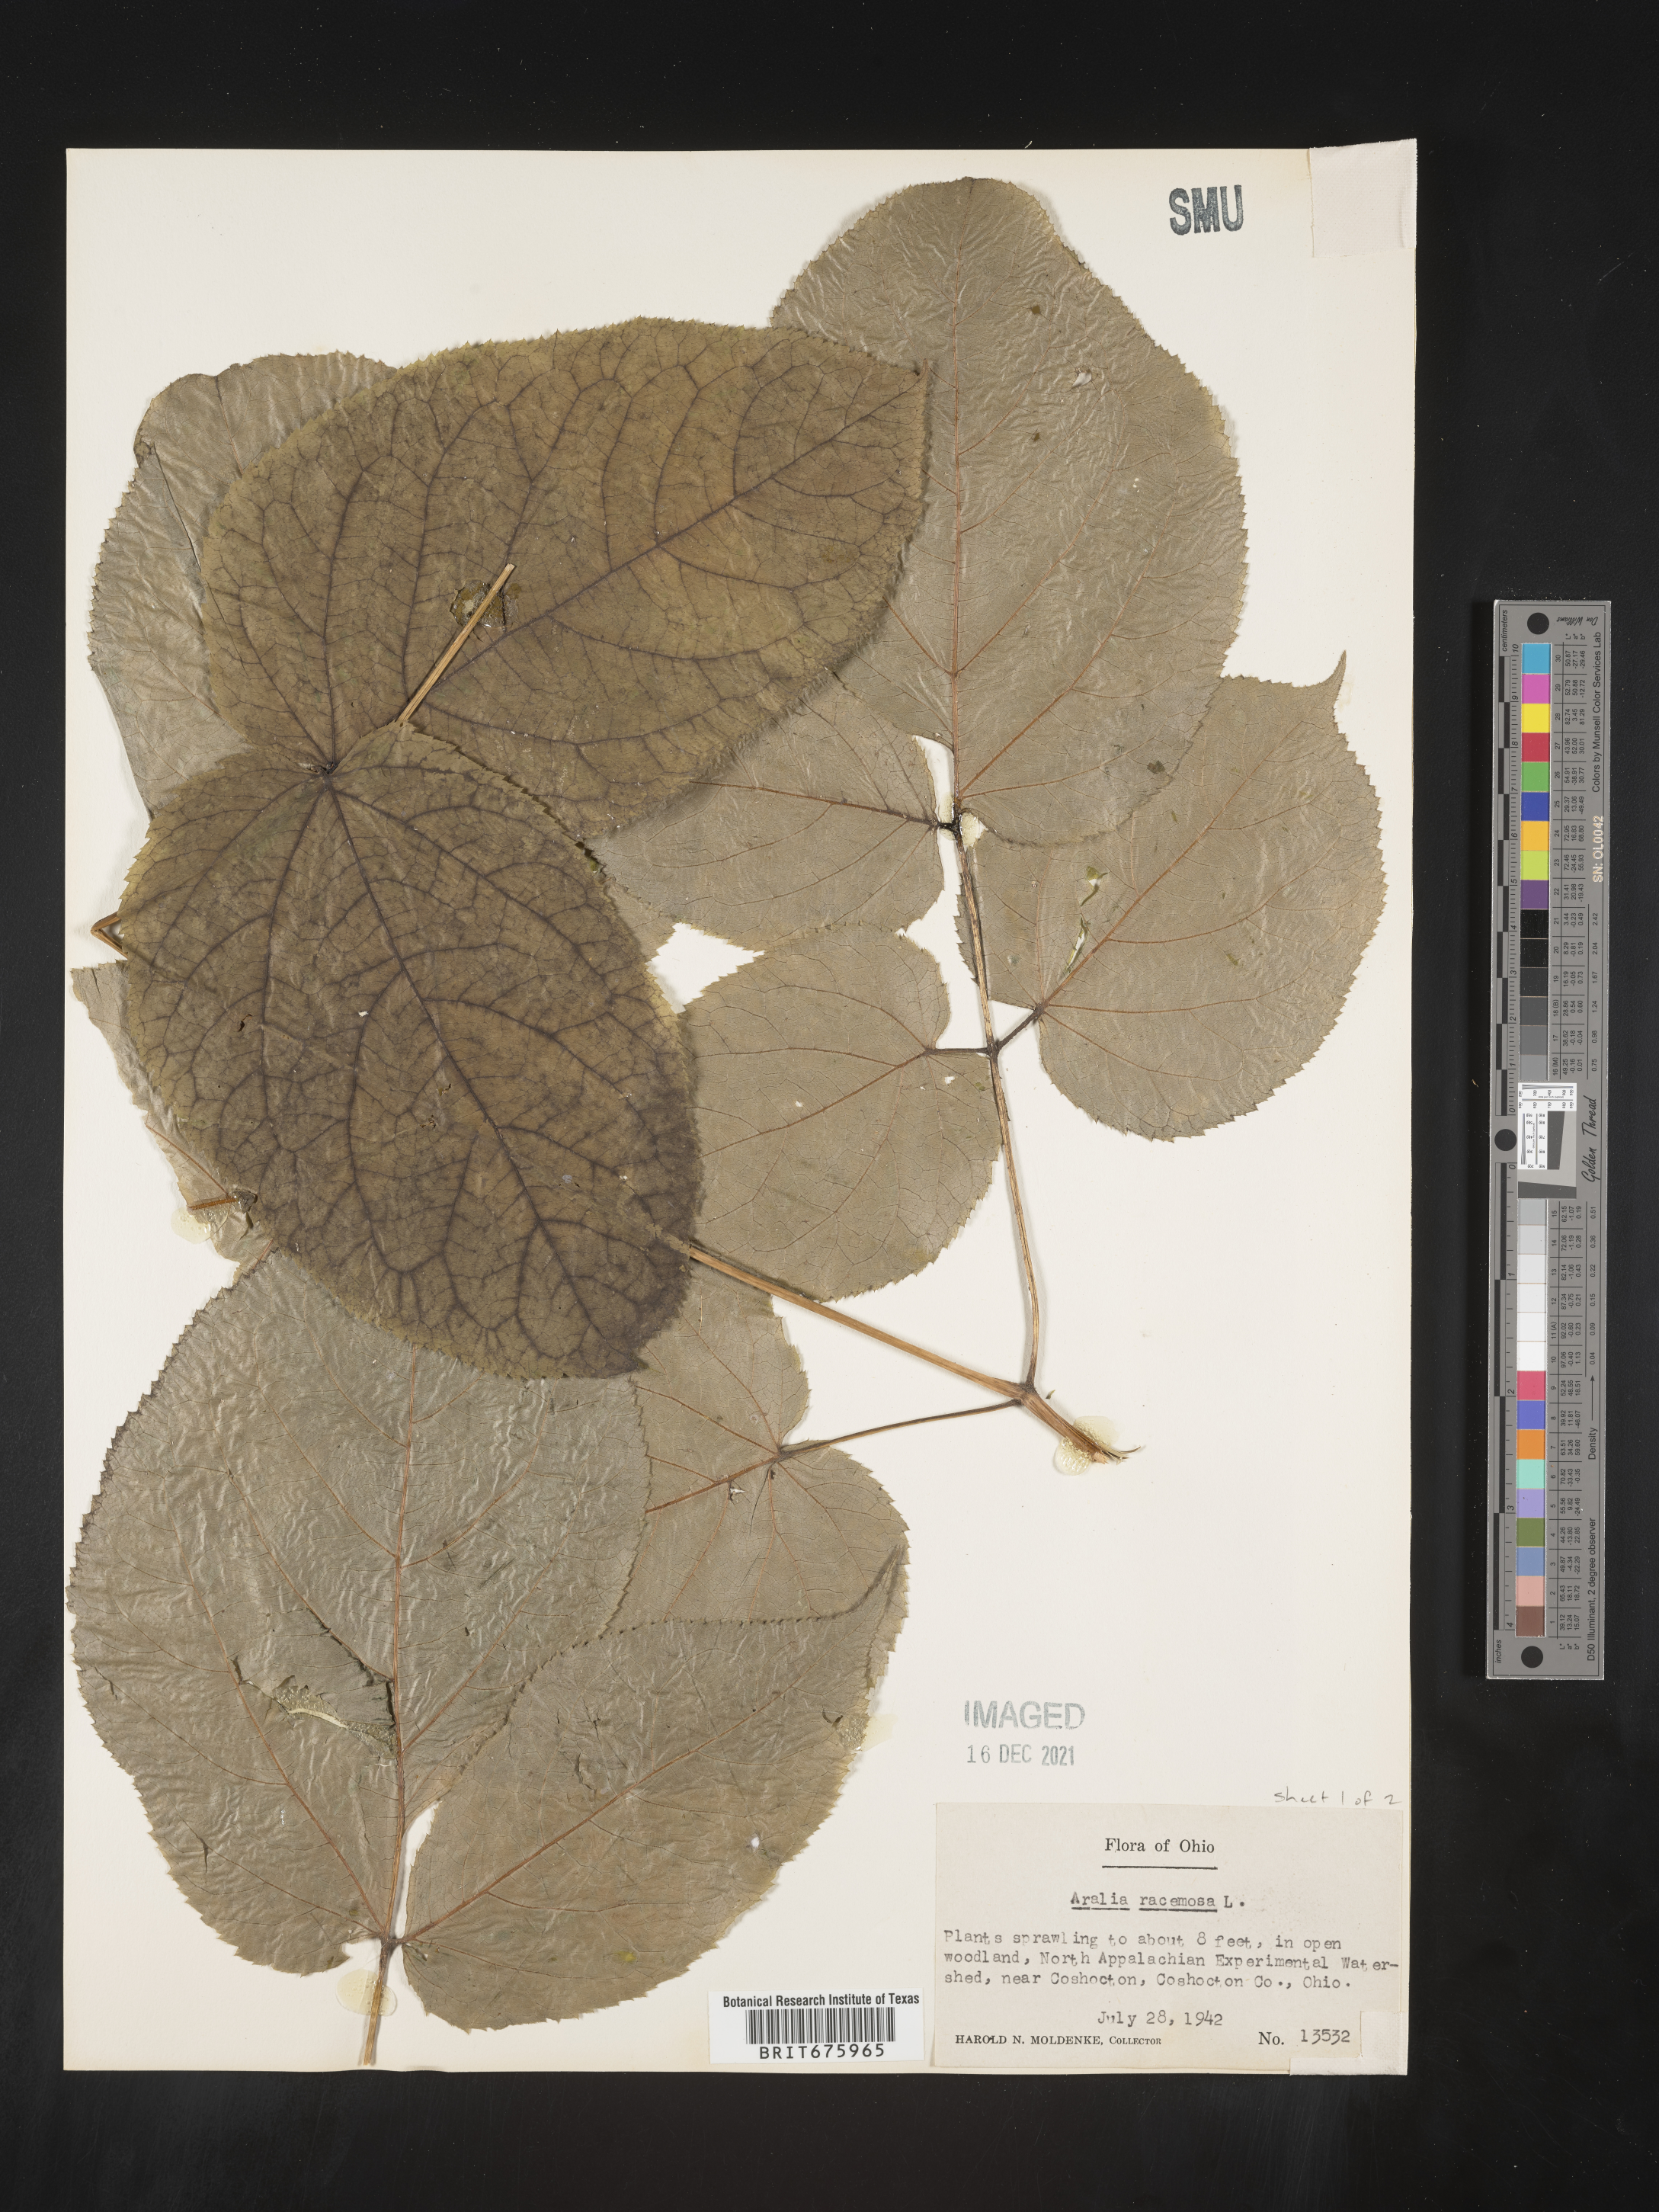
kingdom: Plantae
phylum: Tracheophyta
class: Magnoliopsida
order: Apiales
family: Araliaceae
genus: Aralia
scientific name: Aralia racemosa
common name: American-spikenard
